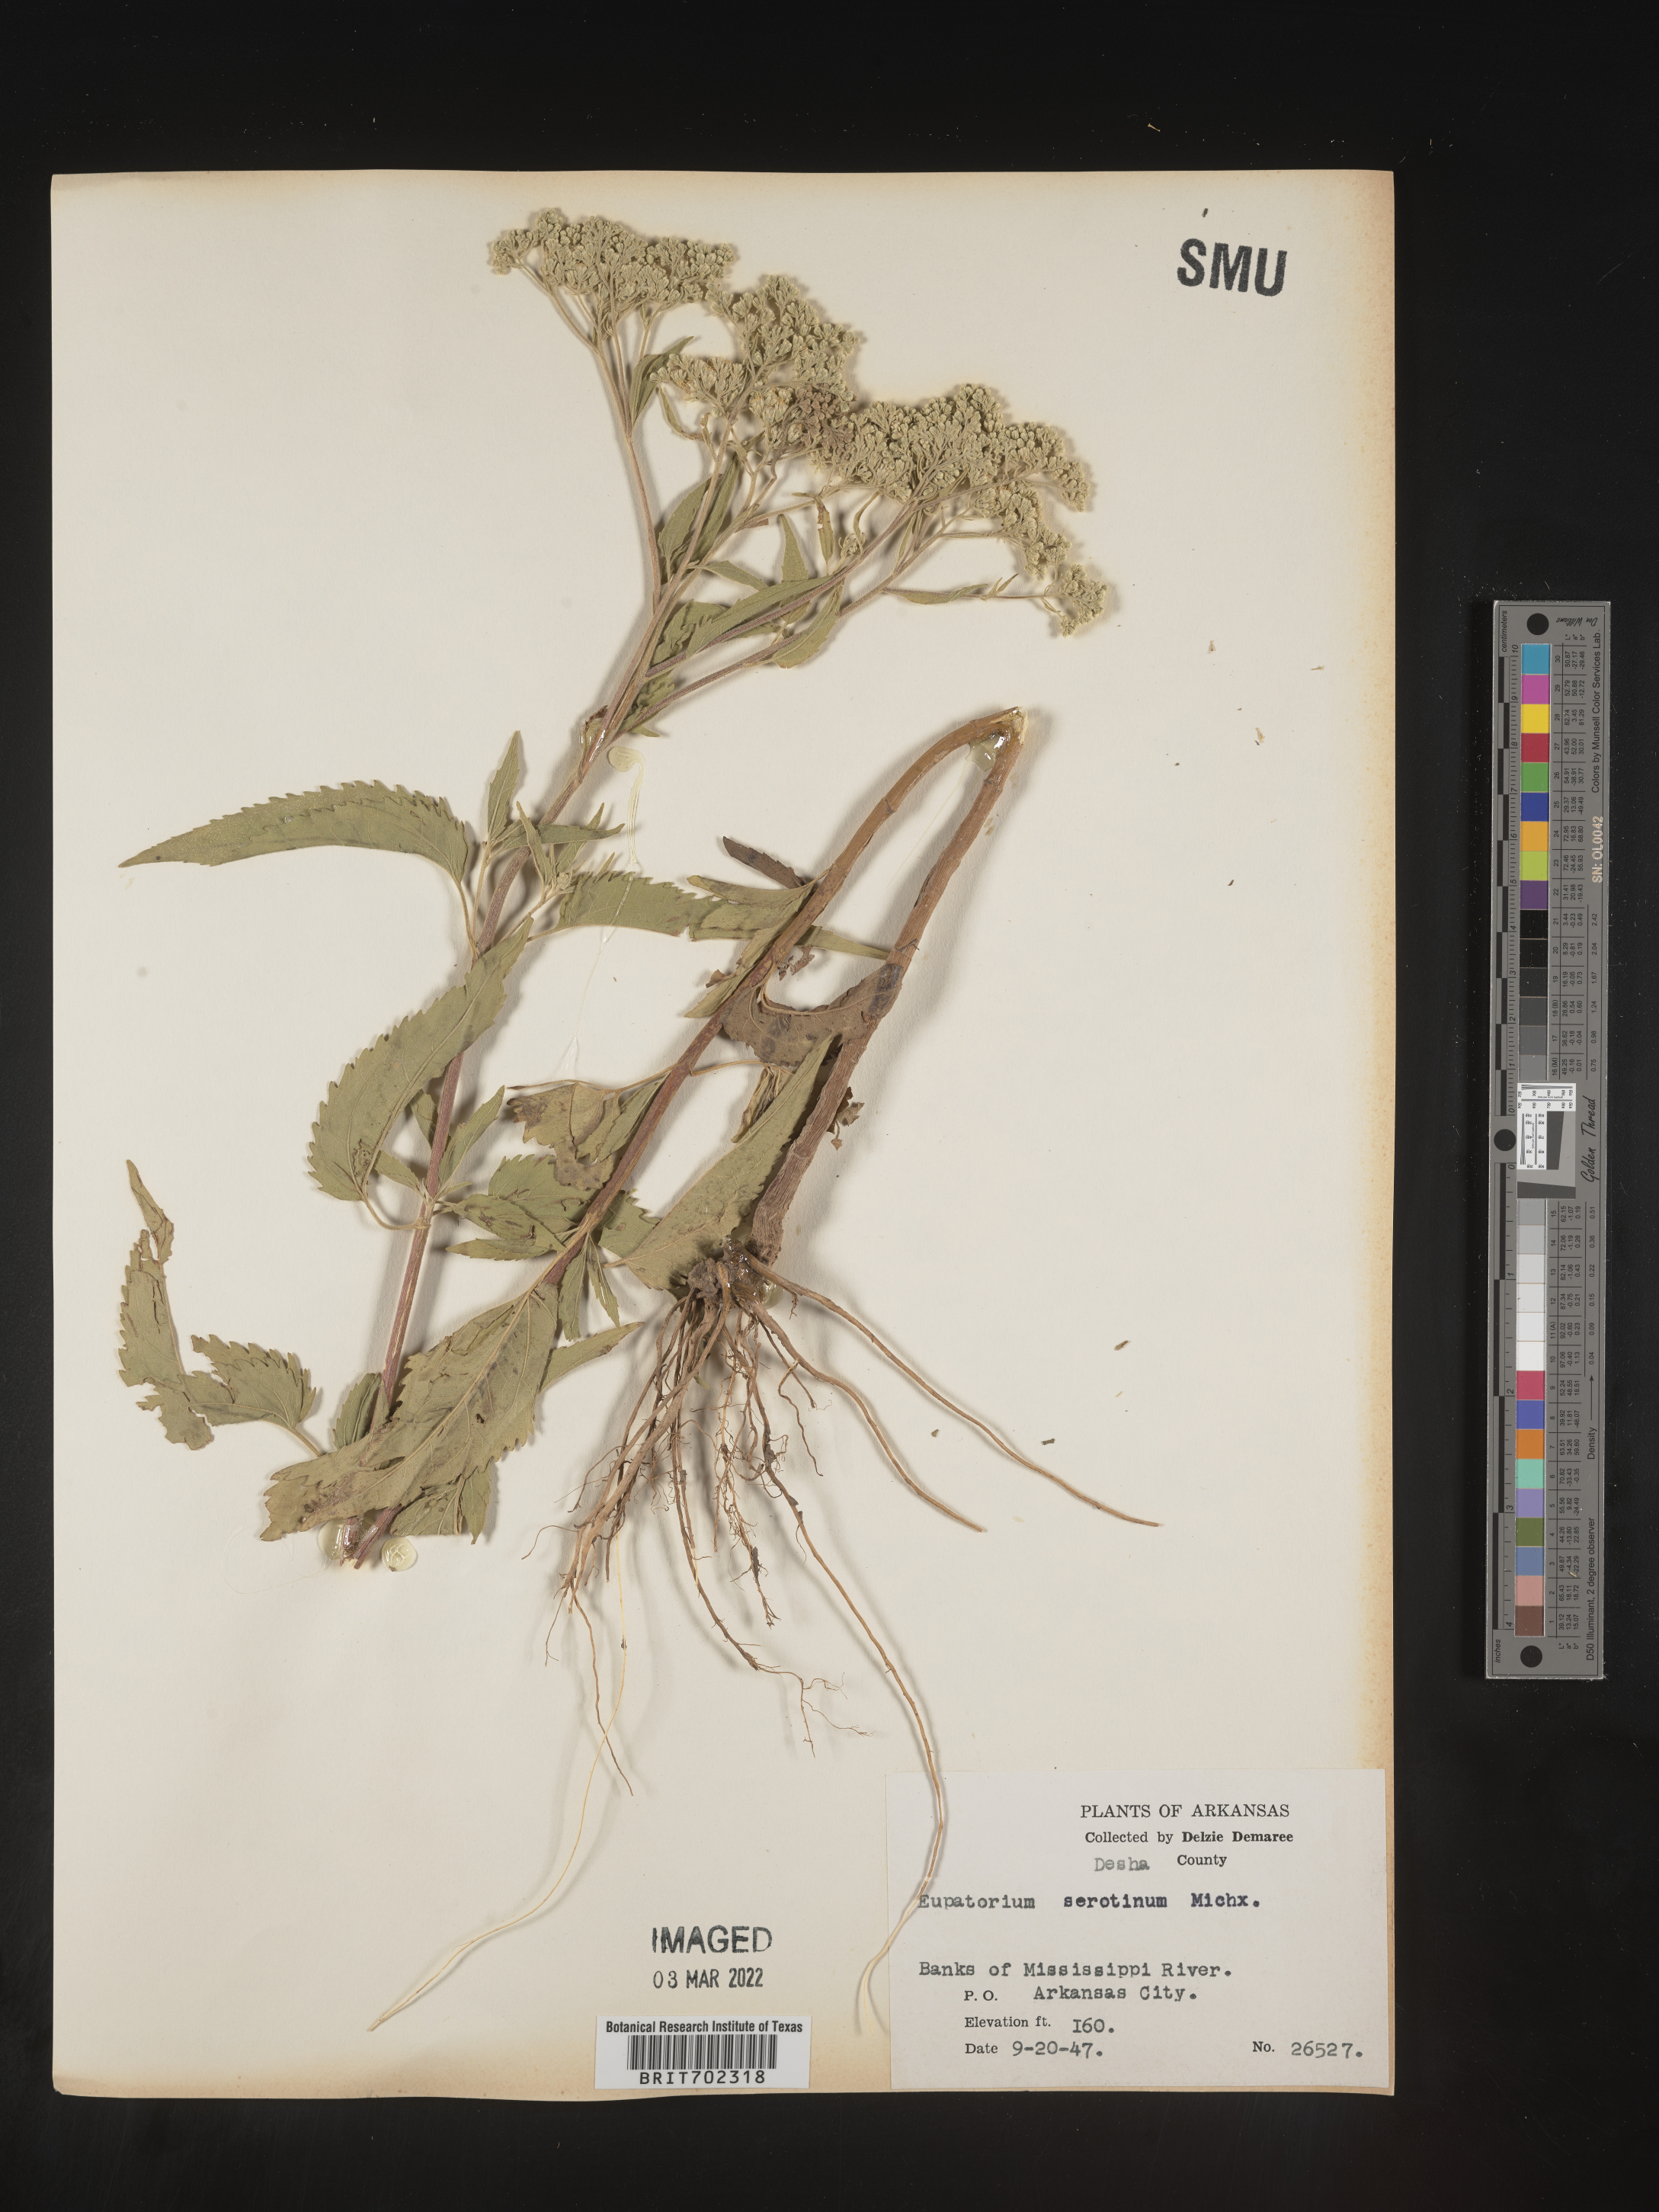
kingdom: Plantae
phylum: Tracheophyta
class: Magnoliopsida
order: Asterales
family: Asteraceae
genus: Eupatorium
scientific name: Eupatorium serotinum
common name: Late boneset
